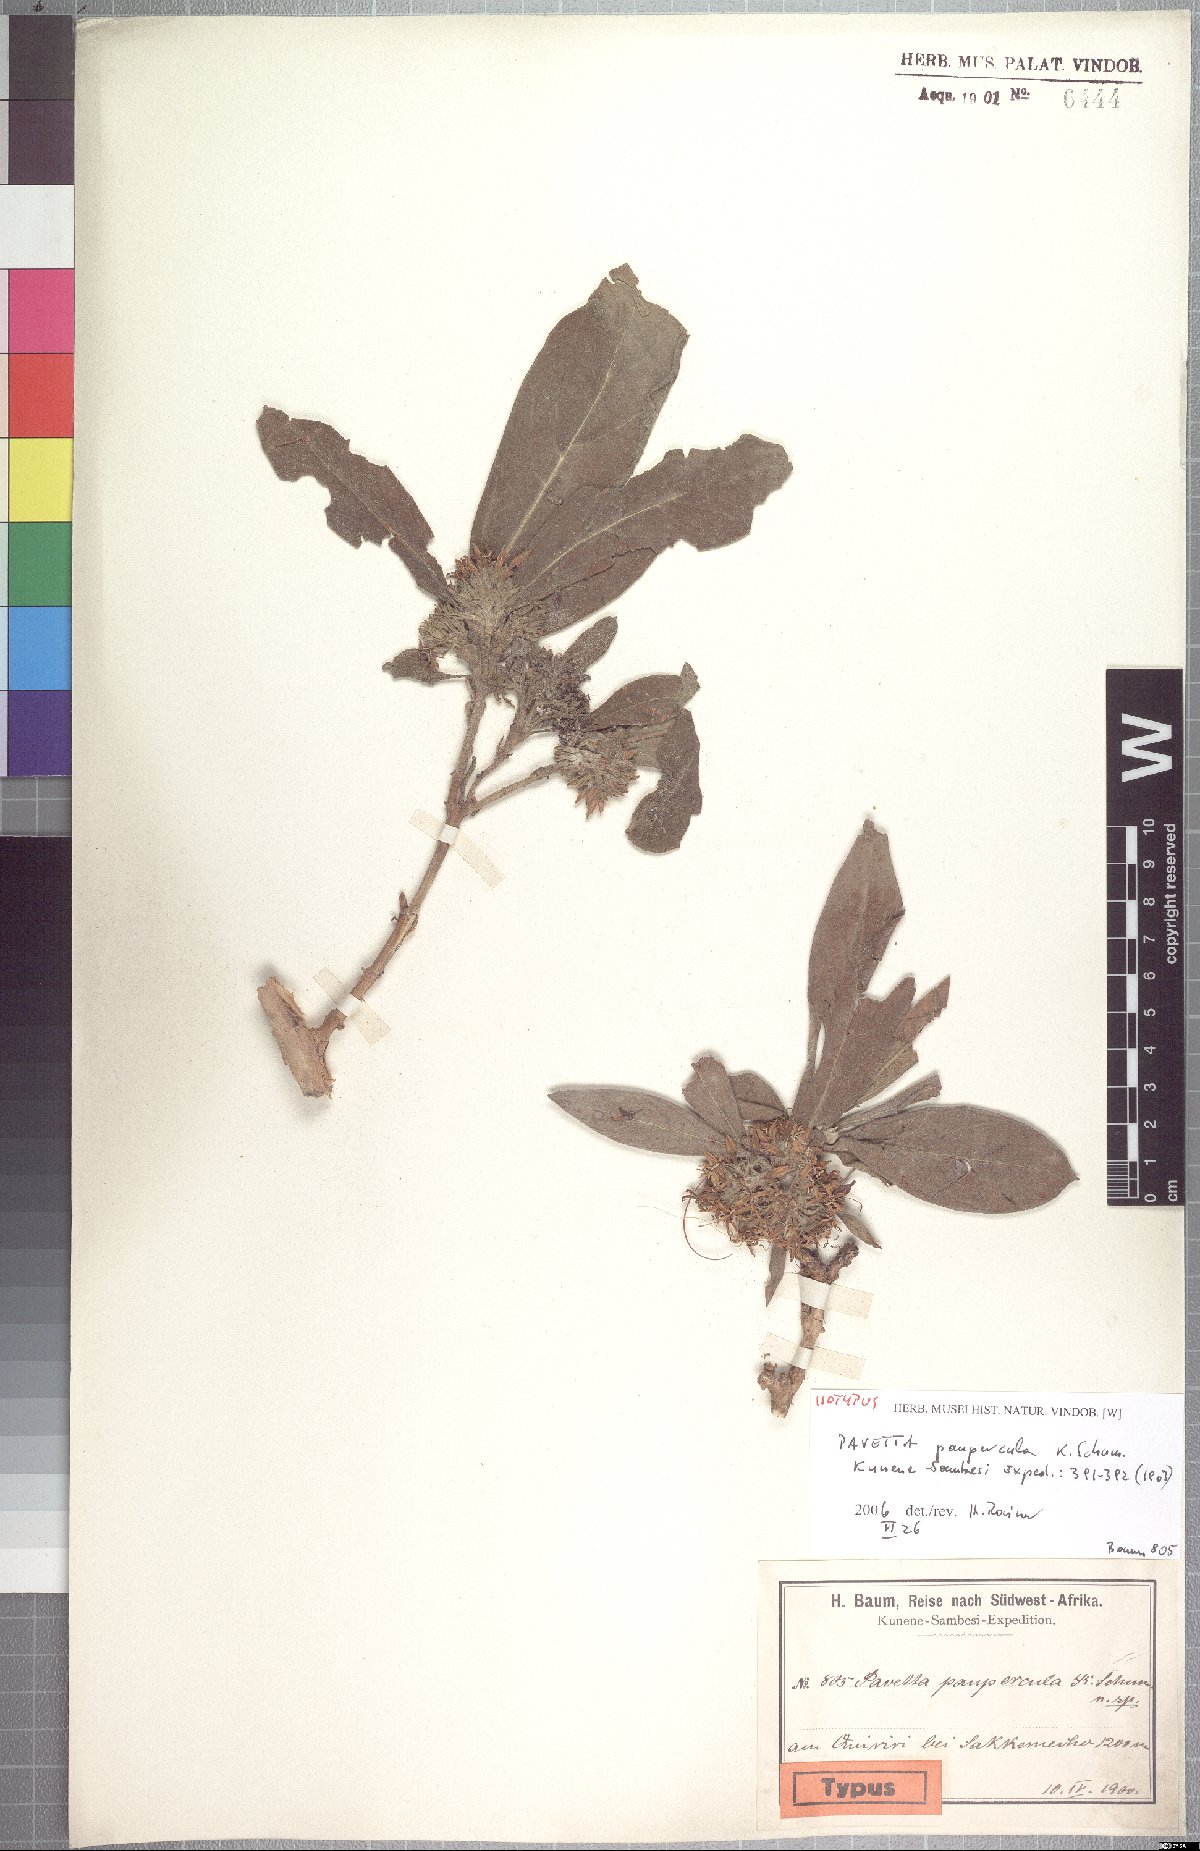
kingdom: Plantae
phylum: Tracheophyta
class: Magnoliopsida
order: Gentianales
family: Rubiaceae
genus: Pavetta
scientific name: Pavetta paupercula
